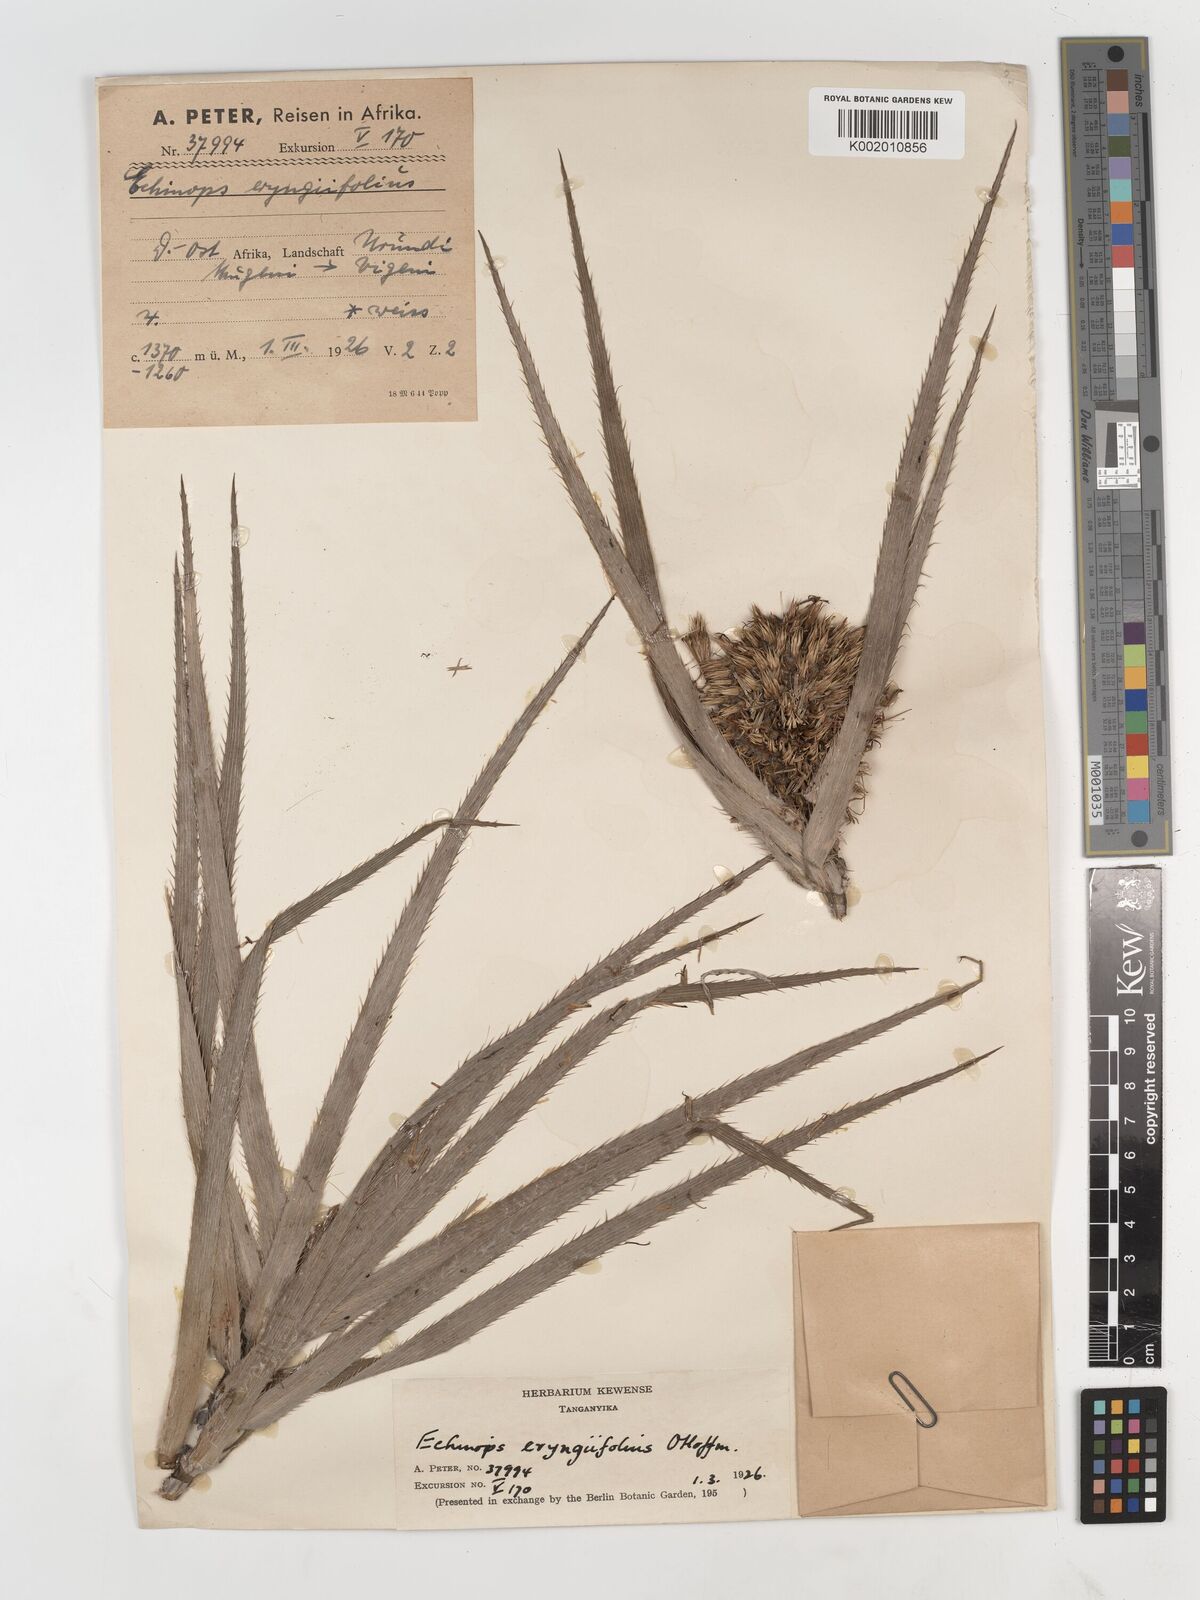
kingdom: Plantae
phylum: Tracheophyta
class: Magnoliopsida
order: Asterales
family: Asteraceae
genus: Echinops
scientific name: Echinops eryngiifolius
